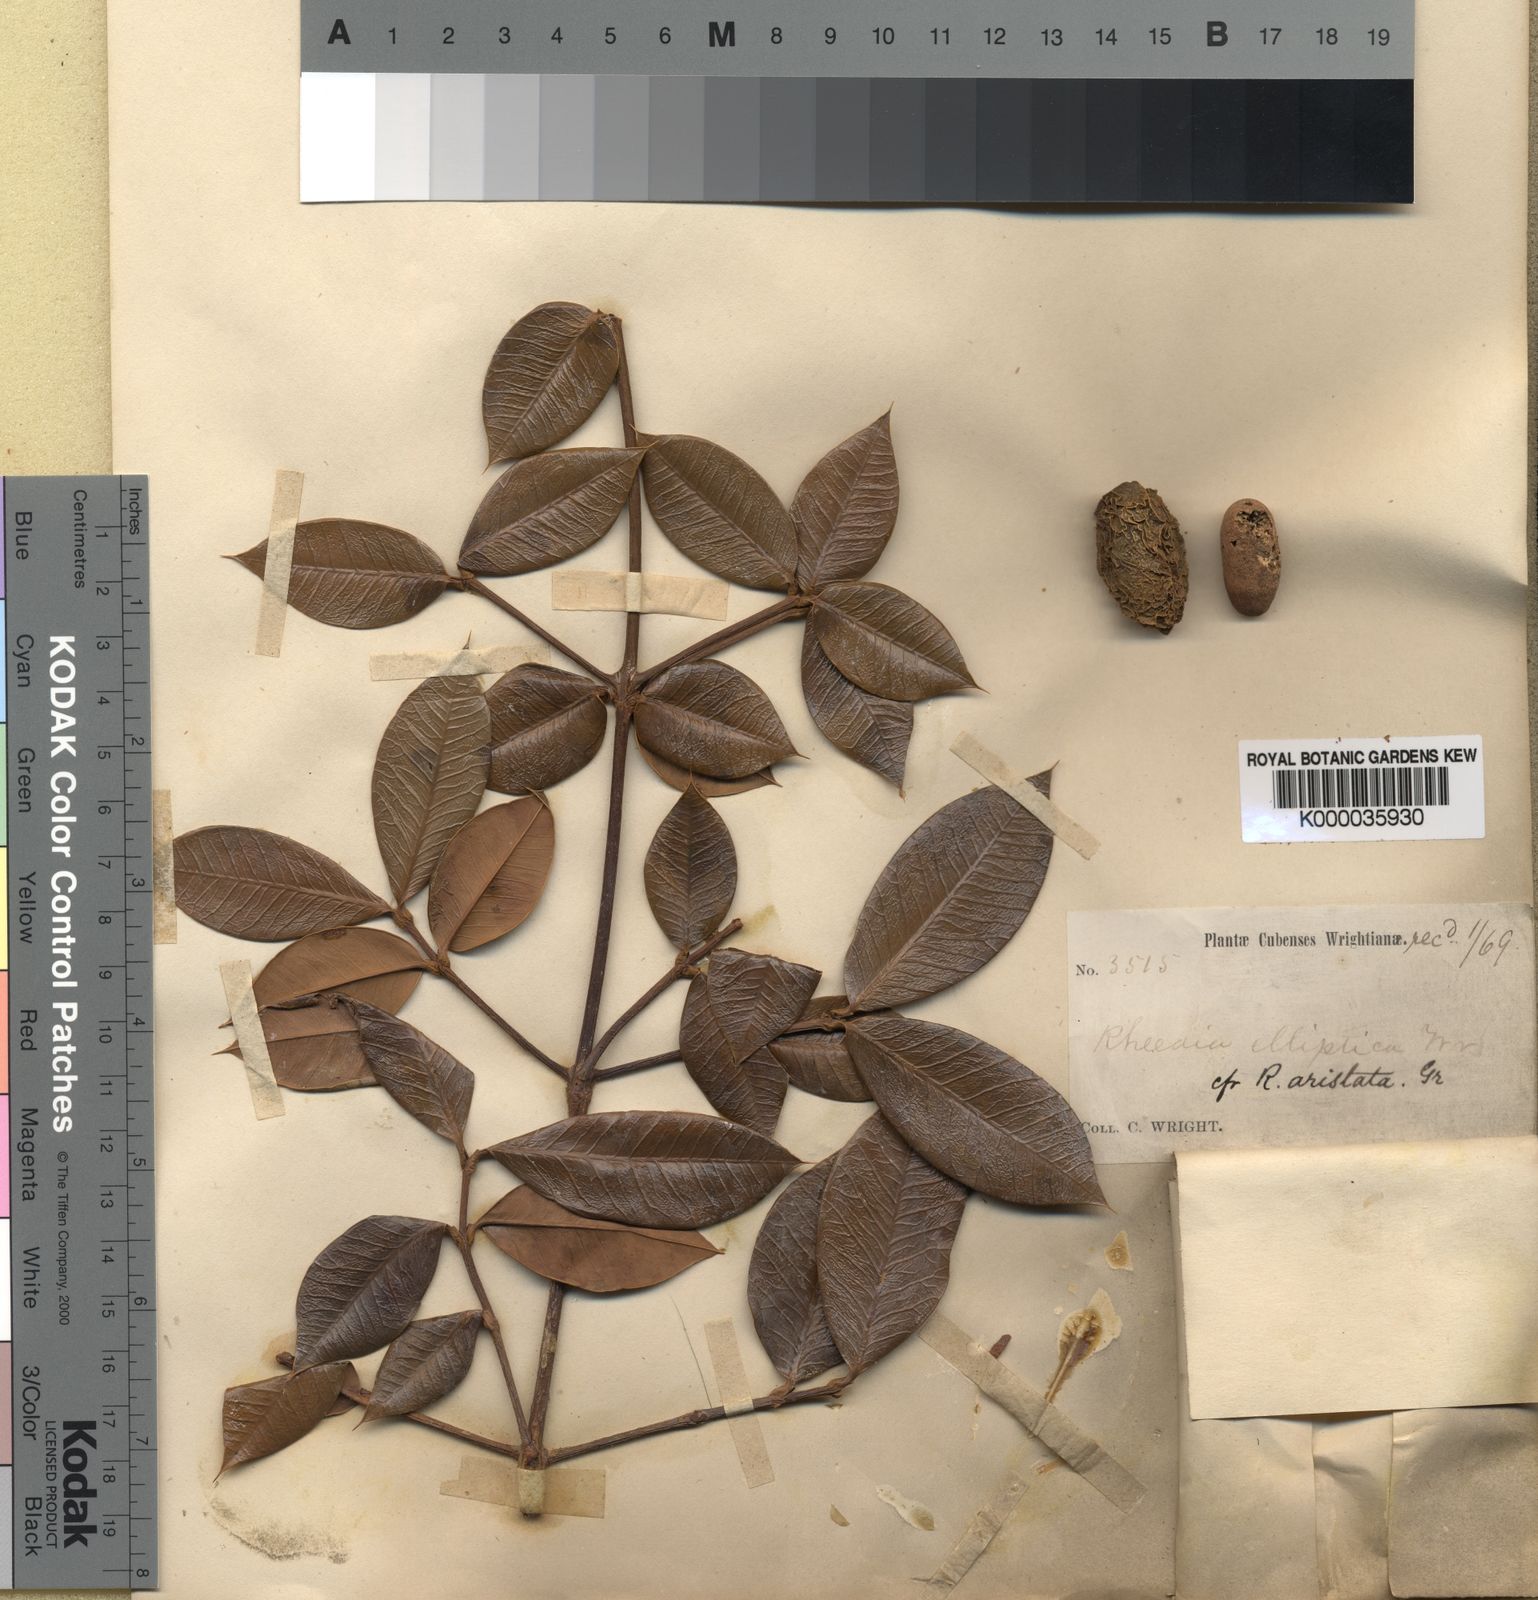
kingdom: Plantae
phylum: Tracheophyta
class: Magnoliopsida
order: Malpighiales
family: Clusiaceae
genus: Garcinia
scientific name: Garcinia aristata
